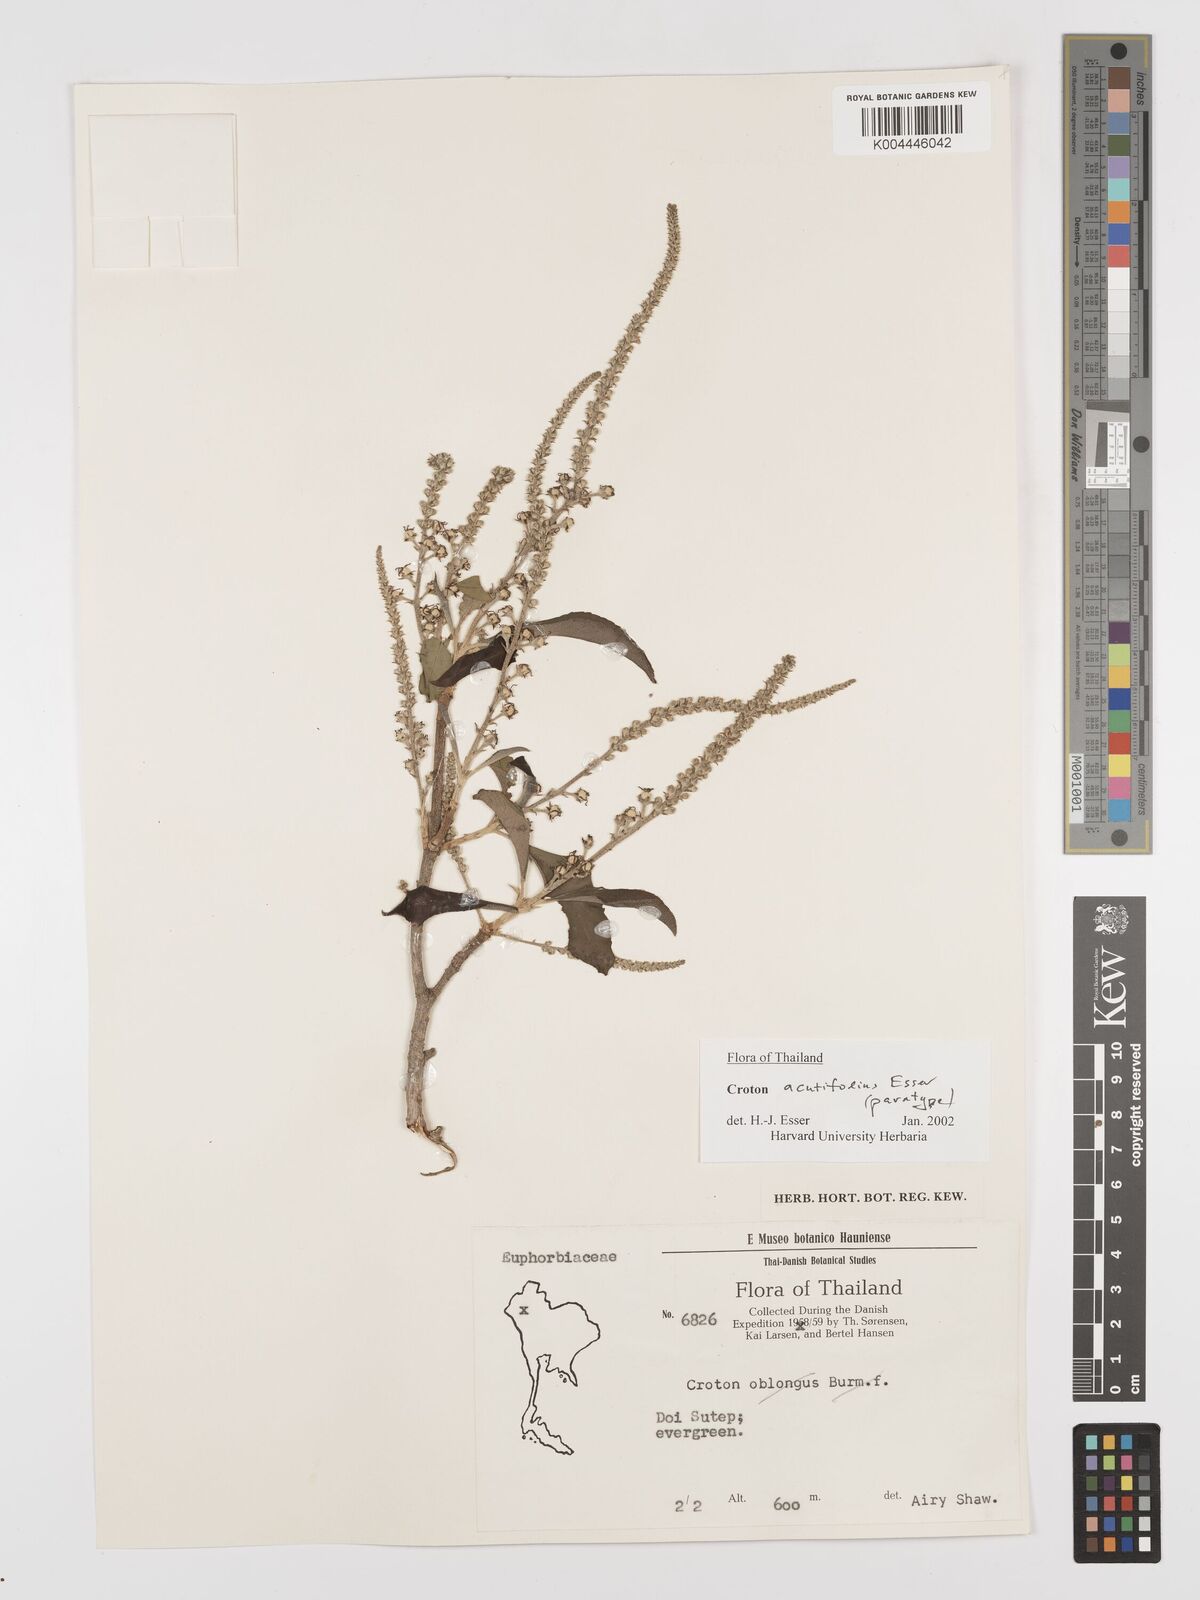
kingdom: Plantae
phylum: Tracheophyta
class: Magnoliopsida
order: Malpighiales
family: Euphorbiaceae
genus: Croton
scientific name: Croton acutifolius
